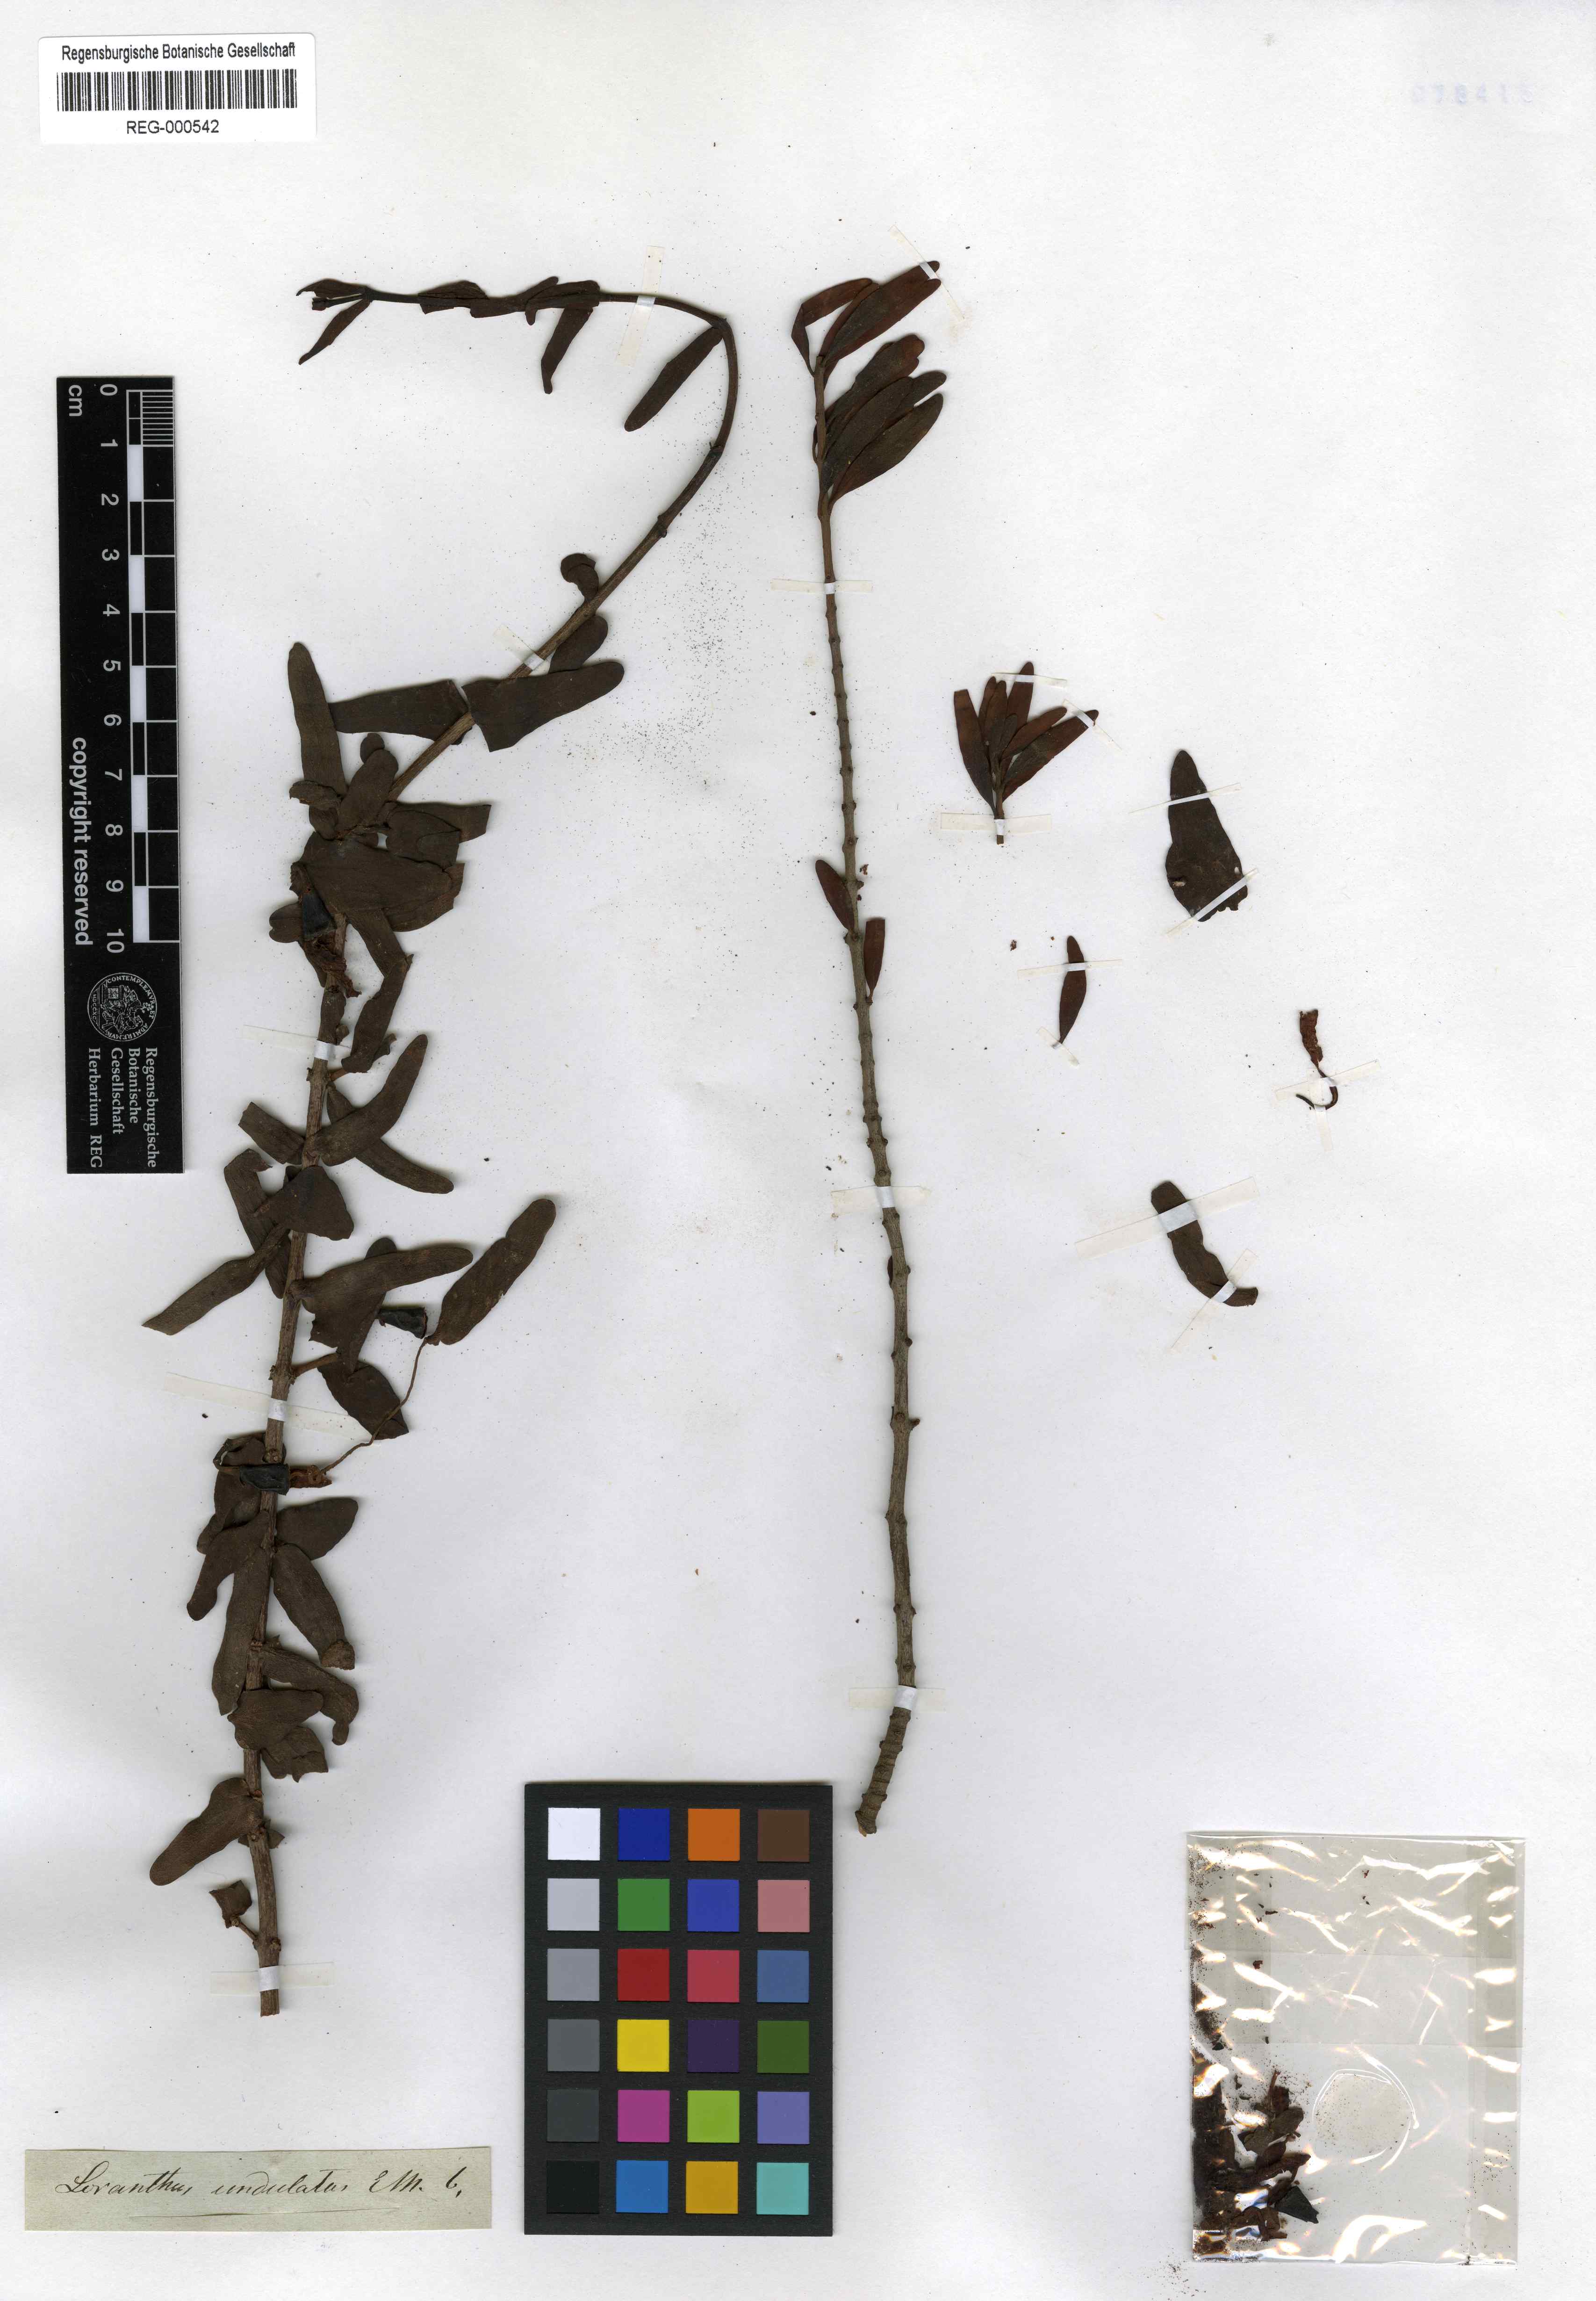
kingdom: Plantae
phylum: Tracheophyta
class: Magnoliopsida
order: Santalales
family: Loranthaceae
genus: Plicosepalus
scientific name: Plicosepalus undulatus
